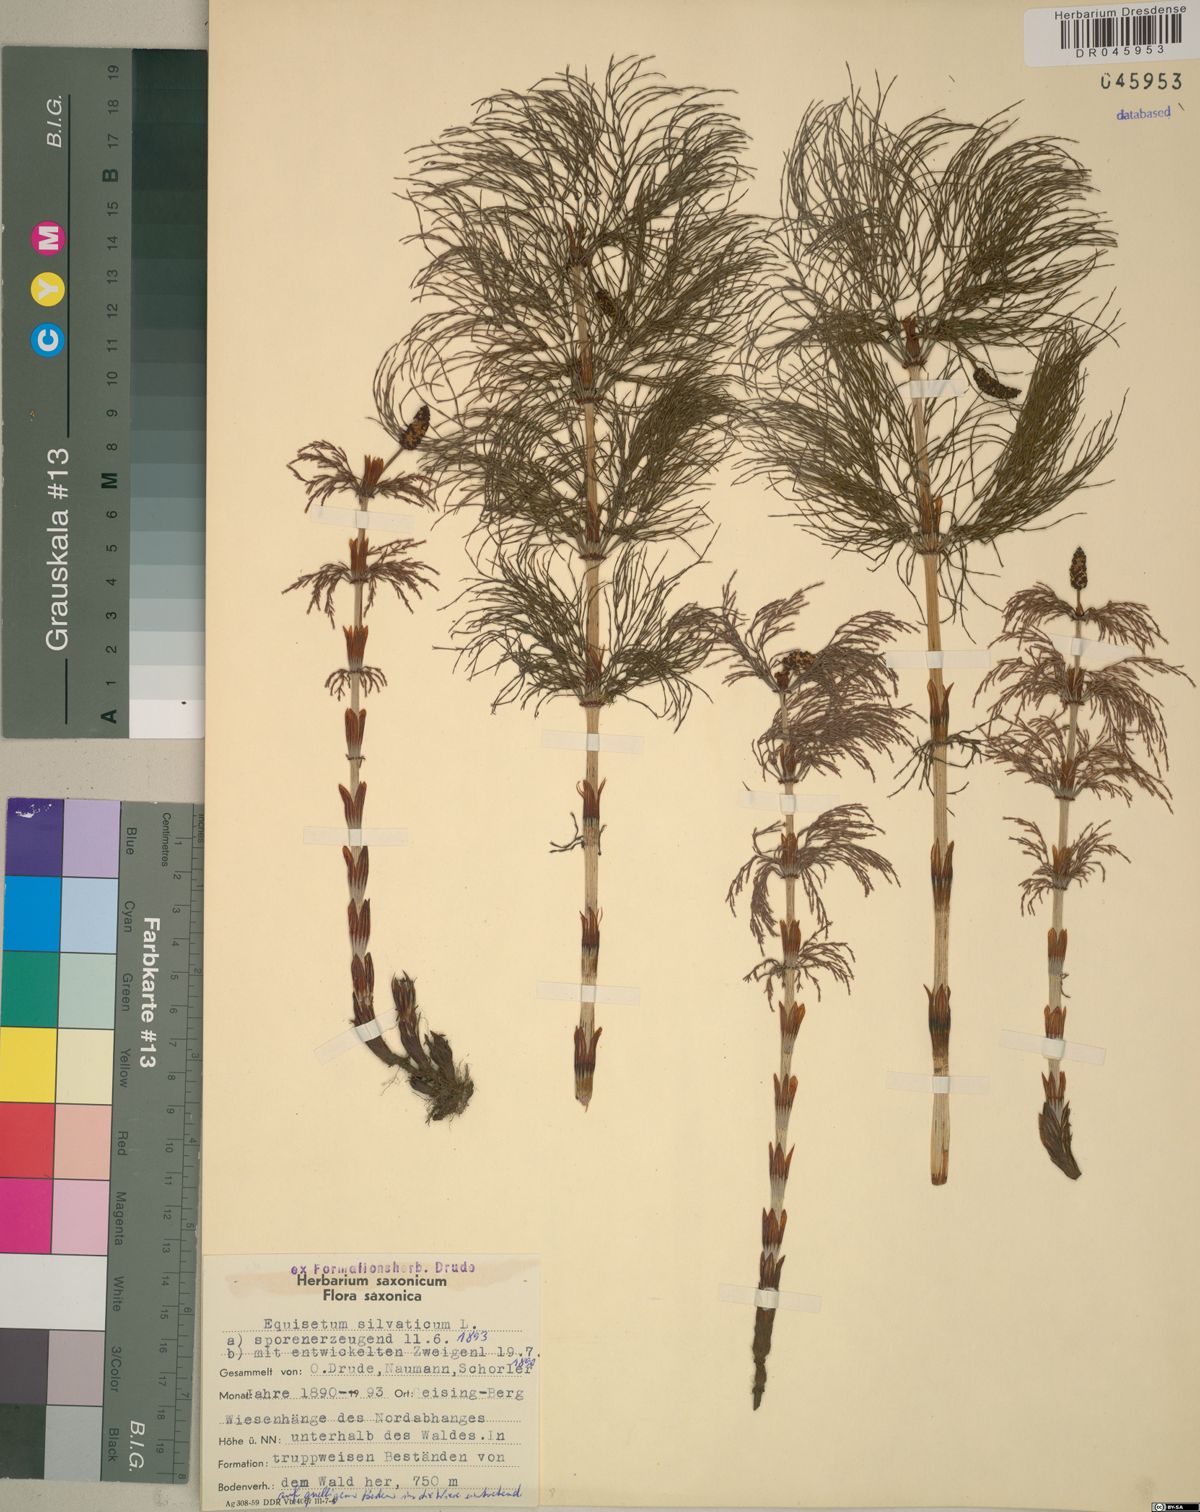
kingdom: Plantae
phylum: Tracheophyta
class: Polypodiopsida
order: Equisetales
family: Equisetaceae
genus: Equisetum
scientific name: Equisetum sylvaticum
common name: Wood horsetail
